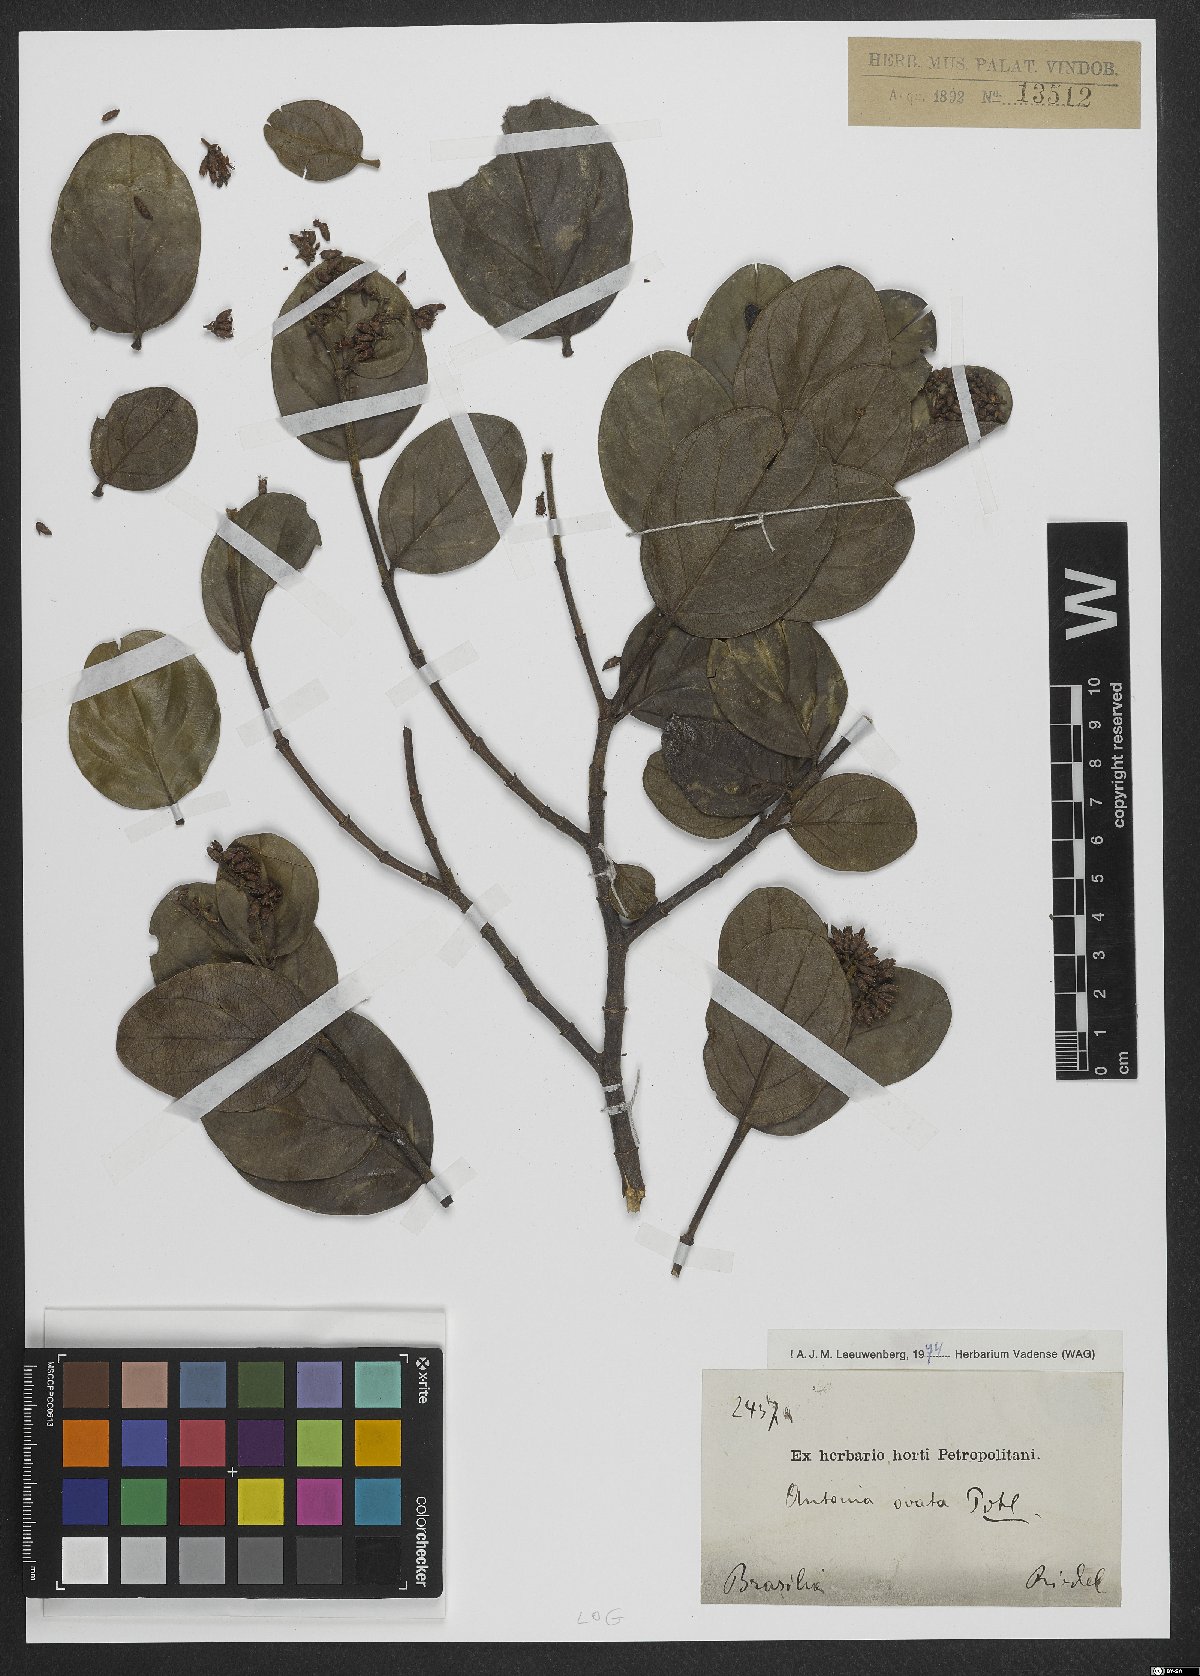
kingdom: Plantae
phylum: Tracheophyta
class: Magnoliopsida
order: Gentianales
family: Loganiaceae
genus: Antonia
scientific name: Antonia ovata
